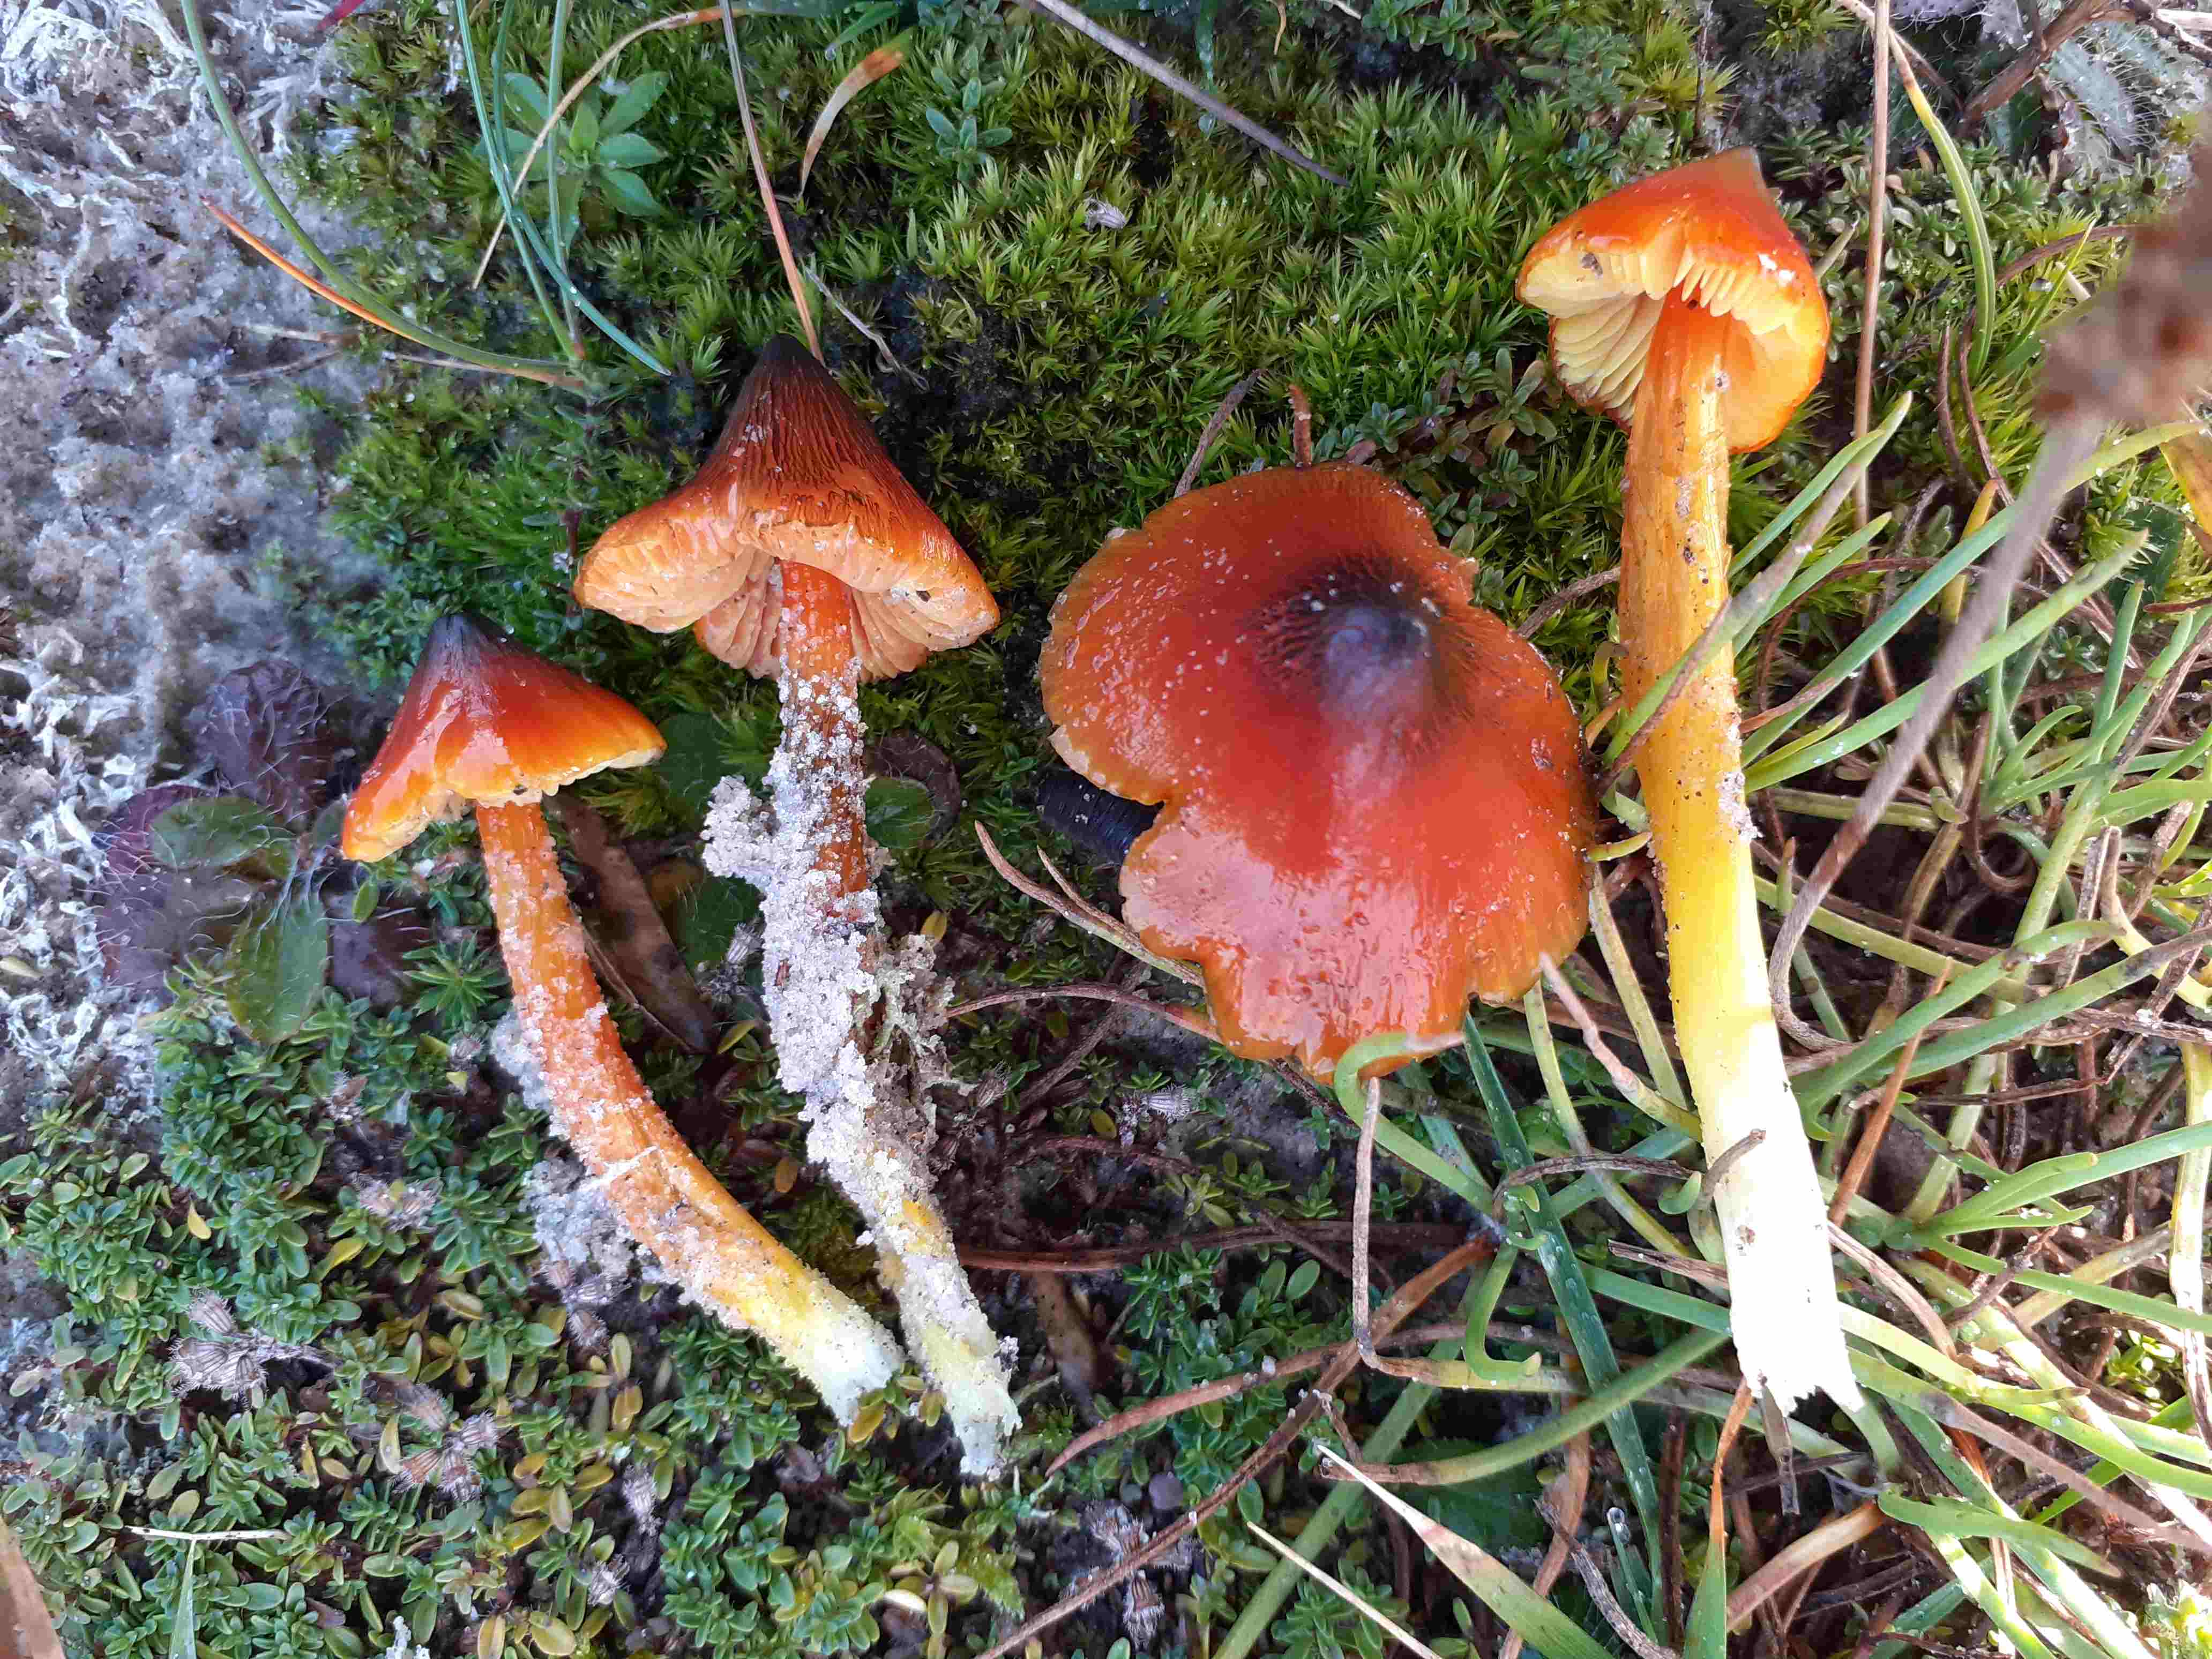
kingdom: Fungi
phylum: Basidiomycota
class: Agaricomycetes
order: Agaricales
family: Hygrophoraceae
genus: Hygrocybe
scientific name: Hygrocybe conica
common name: kegle-vokshat
